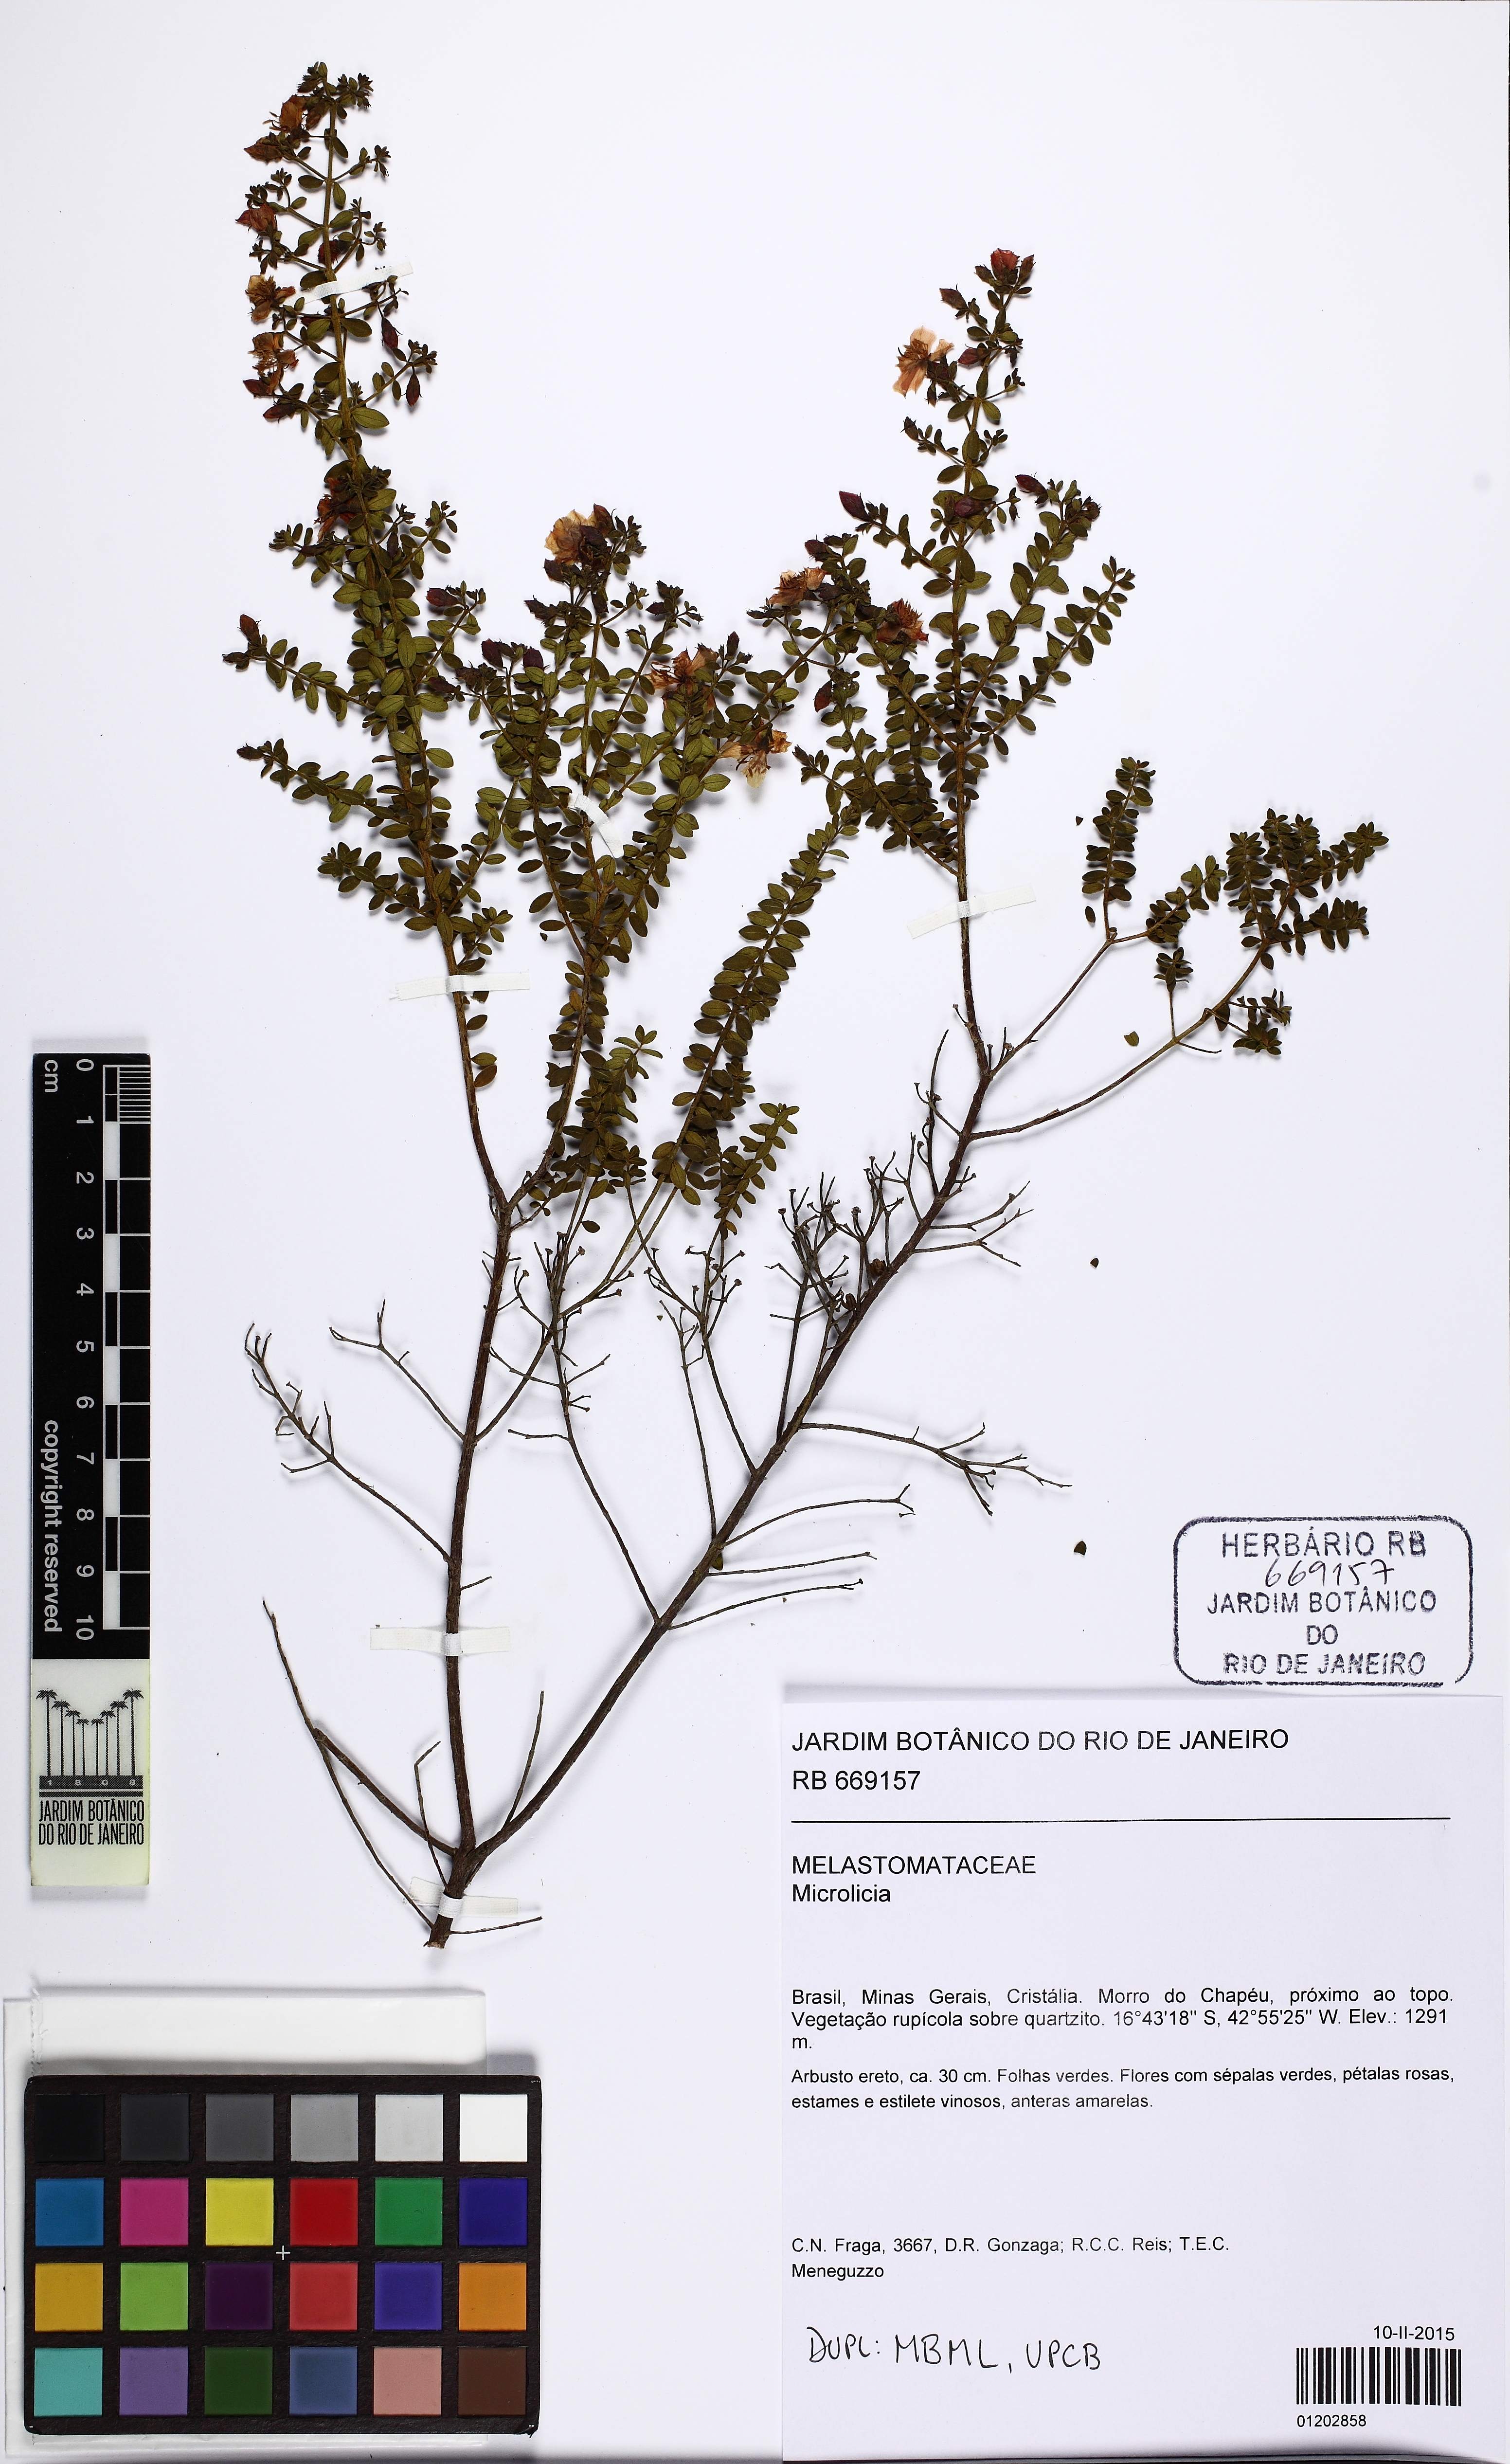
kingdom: Plantae
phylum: Tracheophyta
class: Magnoliopsida
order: Myrtales
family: Melastomataceae
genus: Microlicia
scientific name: Microlicia fulva
